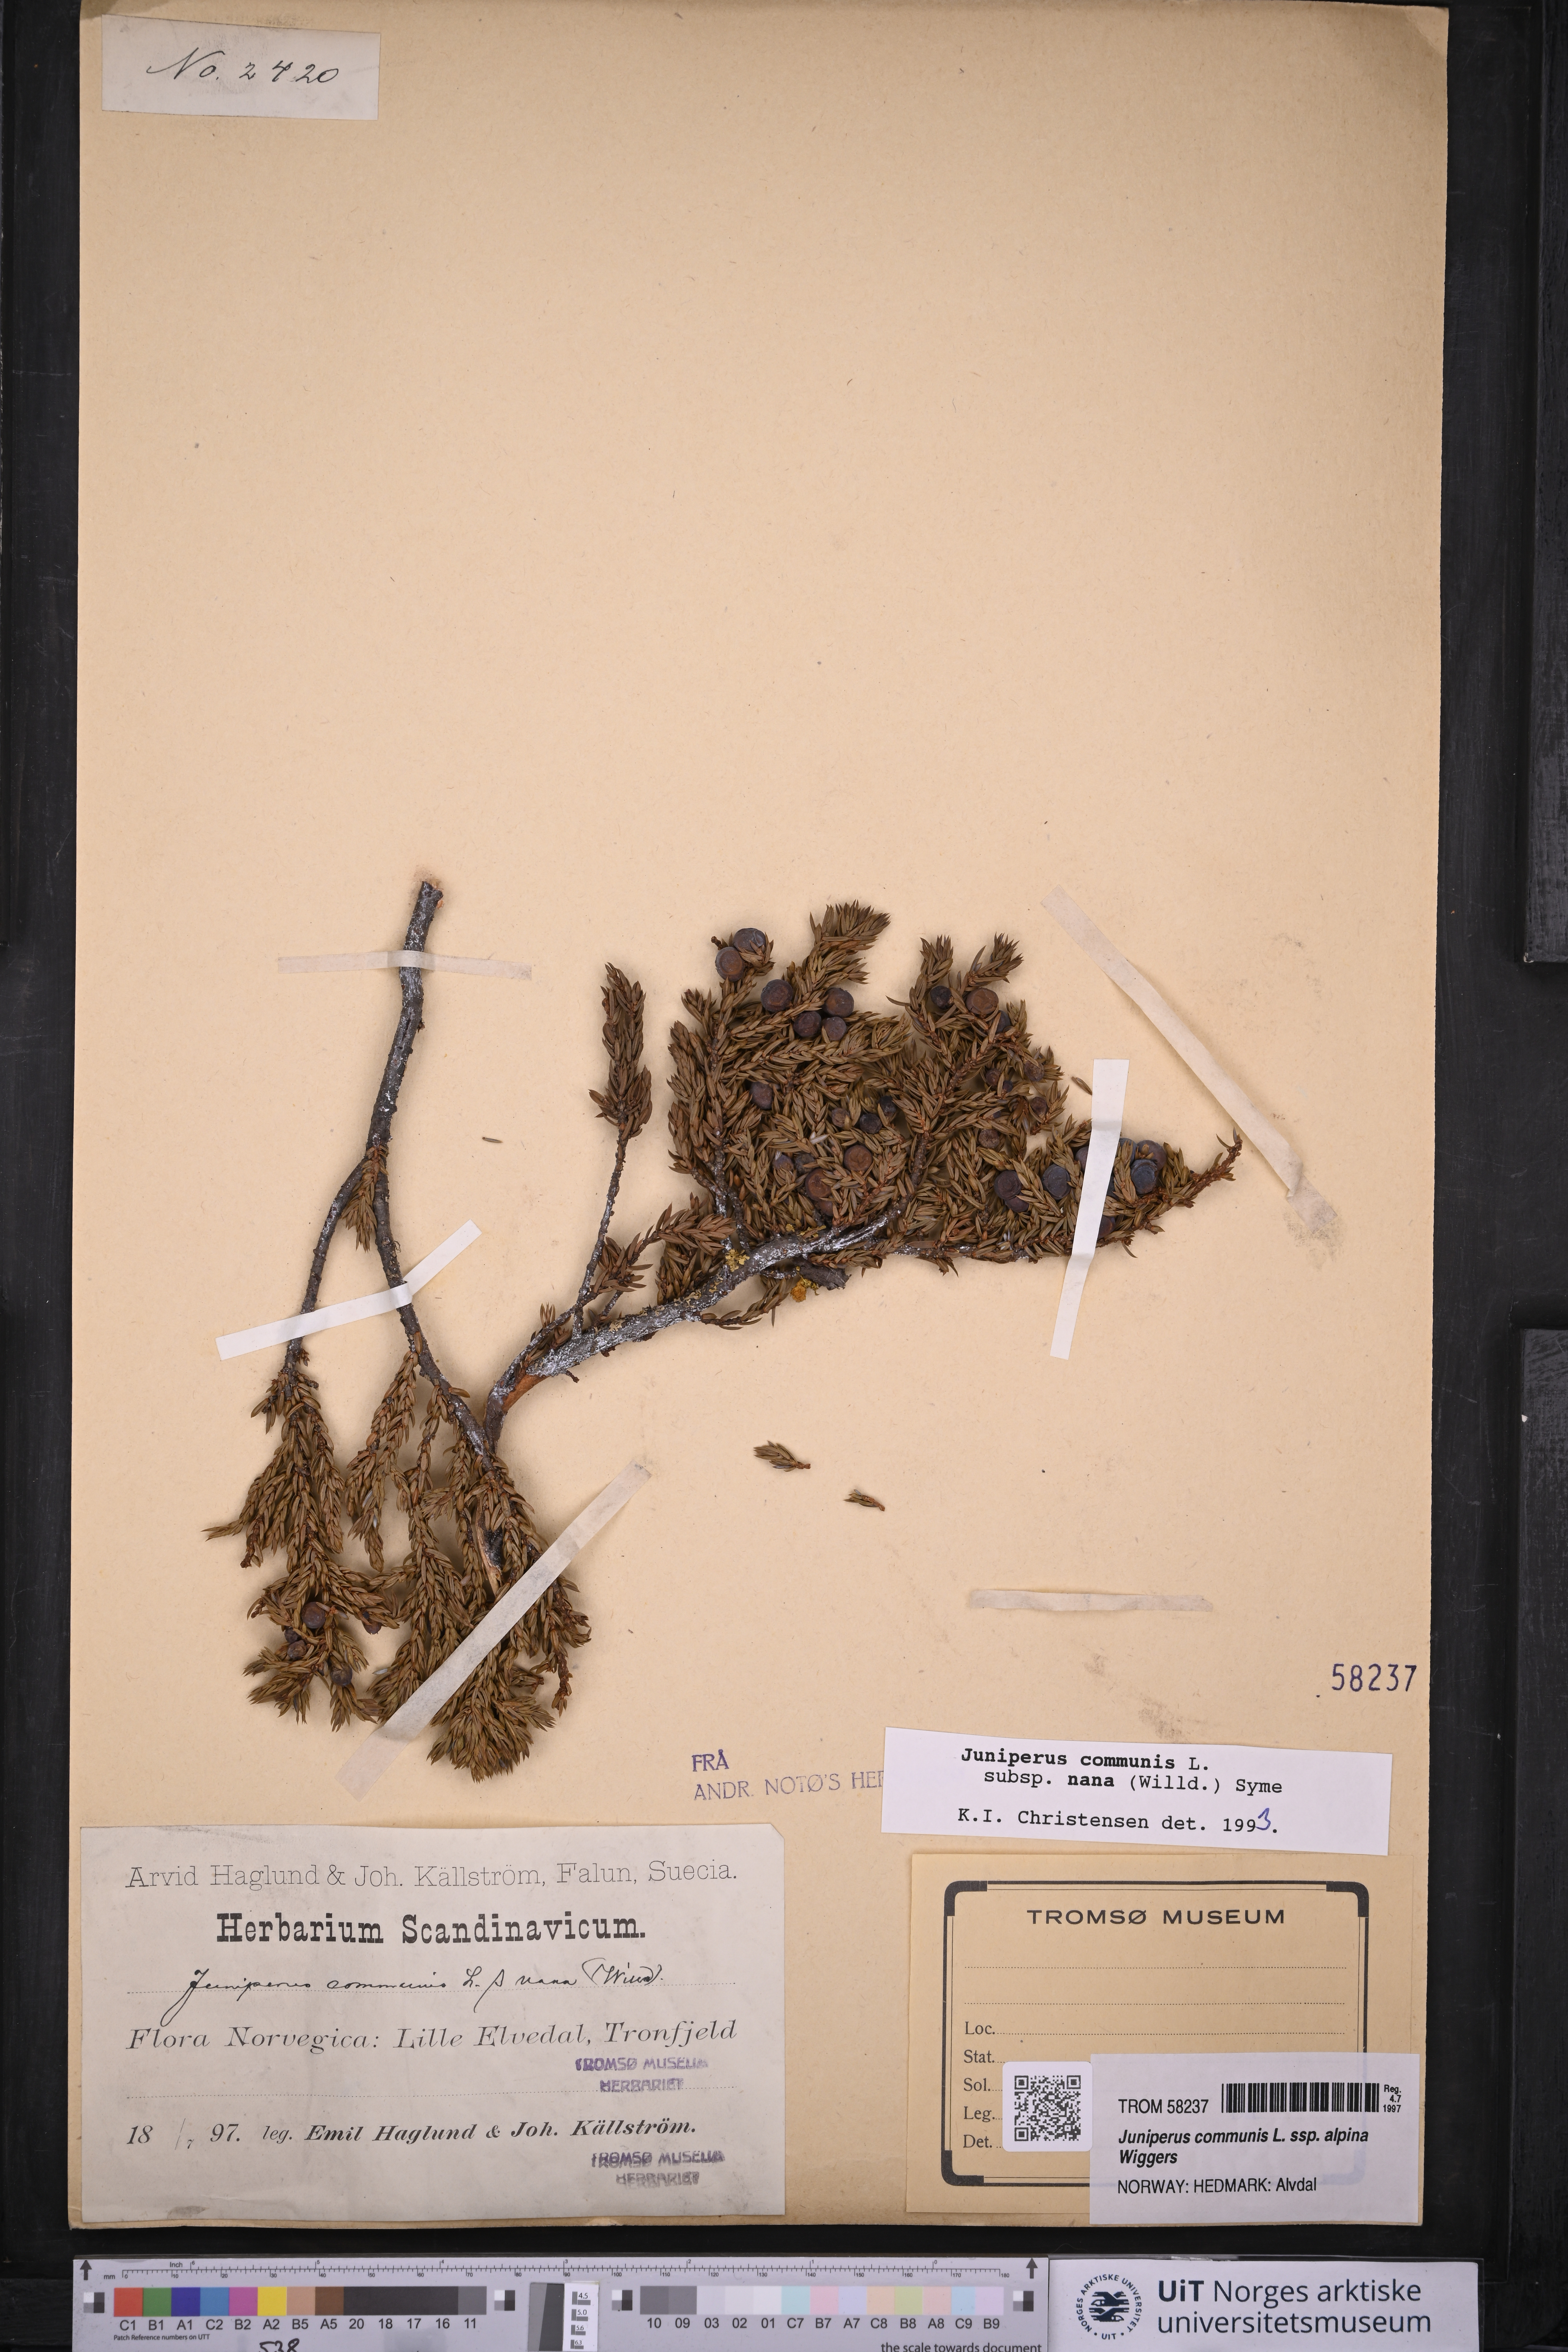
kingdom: Plantae
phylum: Tracheophyta
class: Pinopsida
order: Pinales
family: Cupressaceae
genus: Juniperus
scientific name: Juniperus communis
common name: Common juniper
